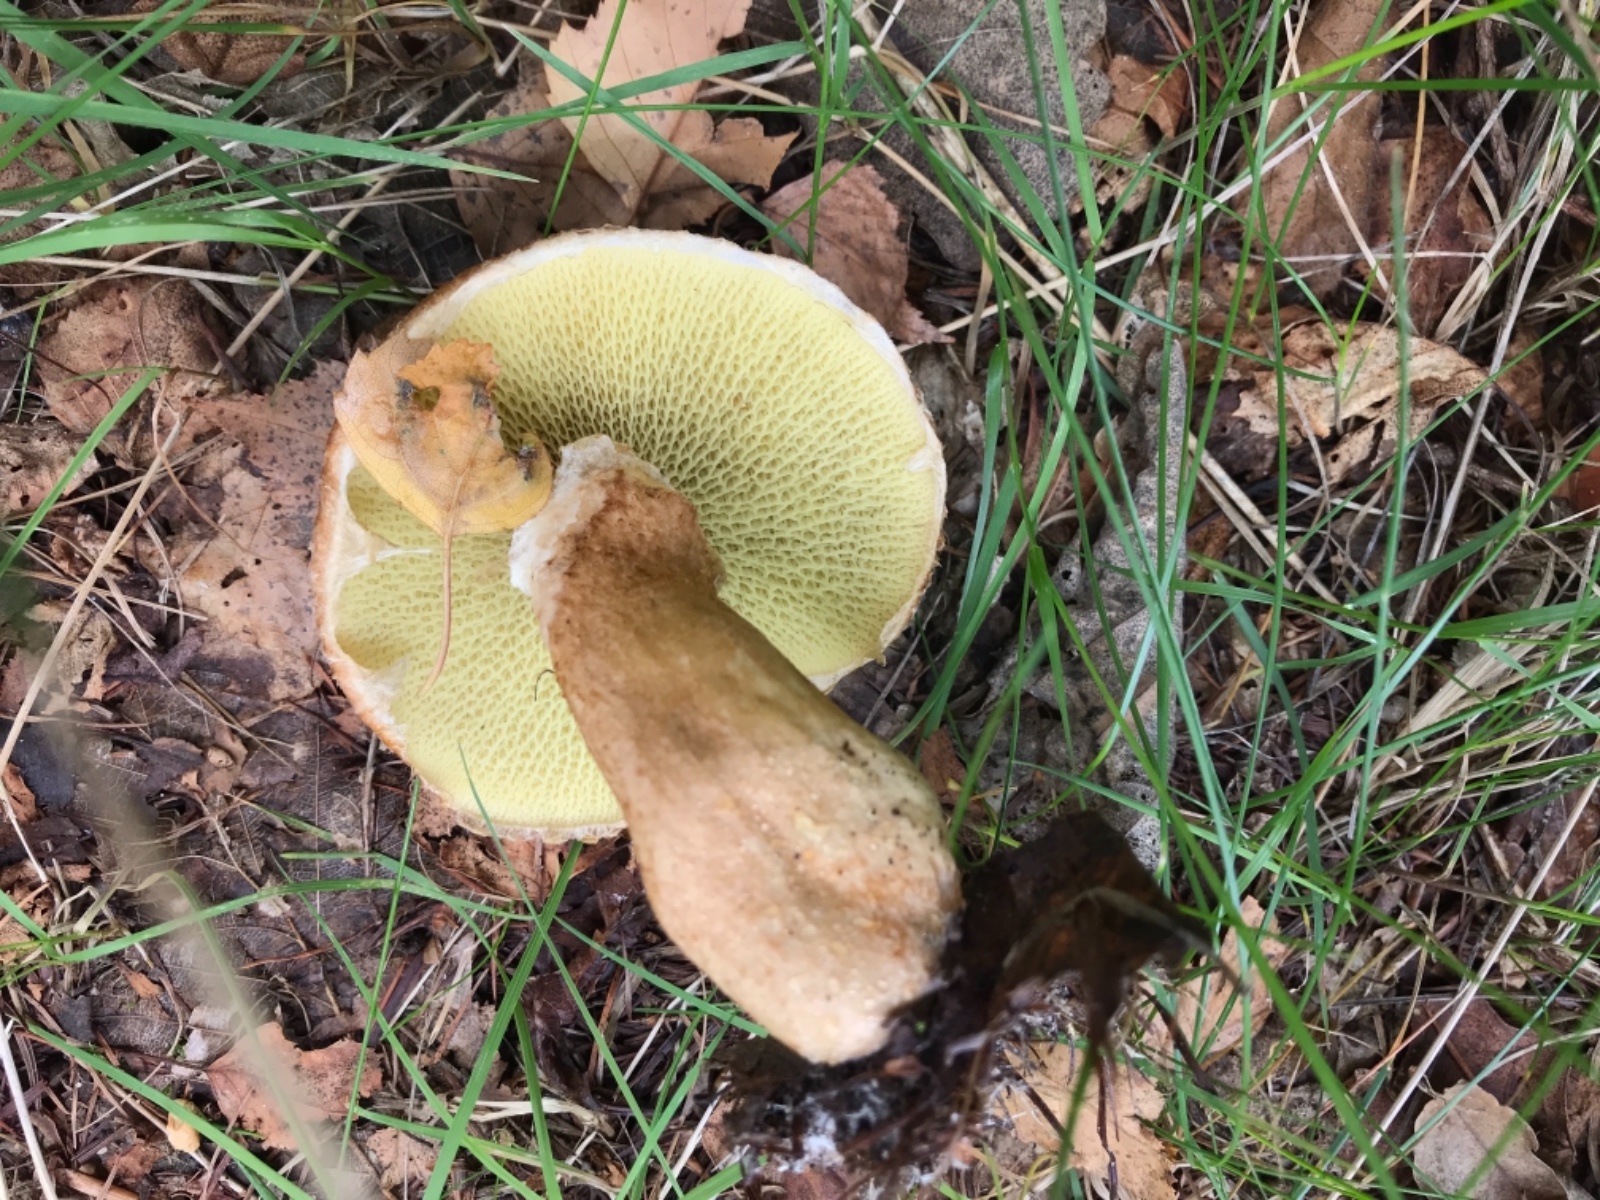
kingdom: Fungi
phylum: Basidiomycota
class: Agaricomycetes
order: Boletales
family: Suillaceae
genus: Suillus
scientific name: Suillus cavipes
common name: hulstokket slimrørhat
